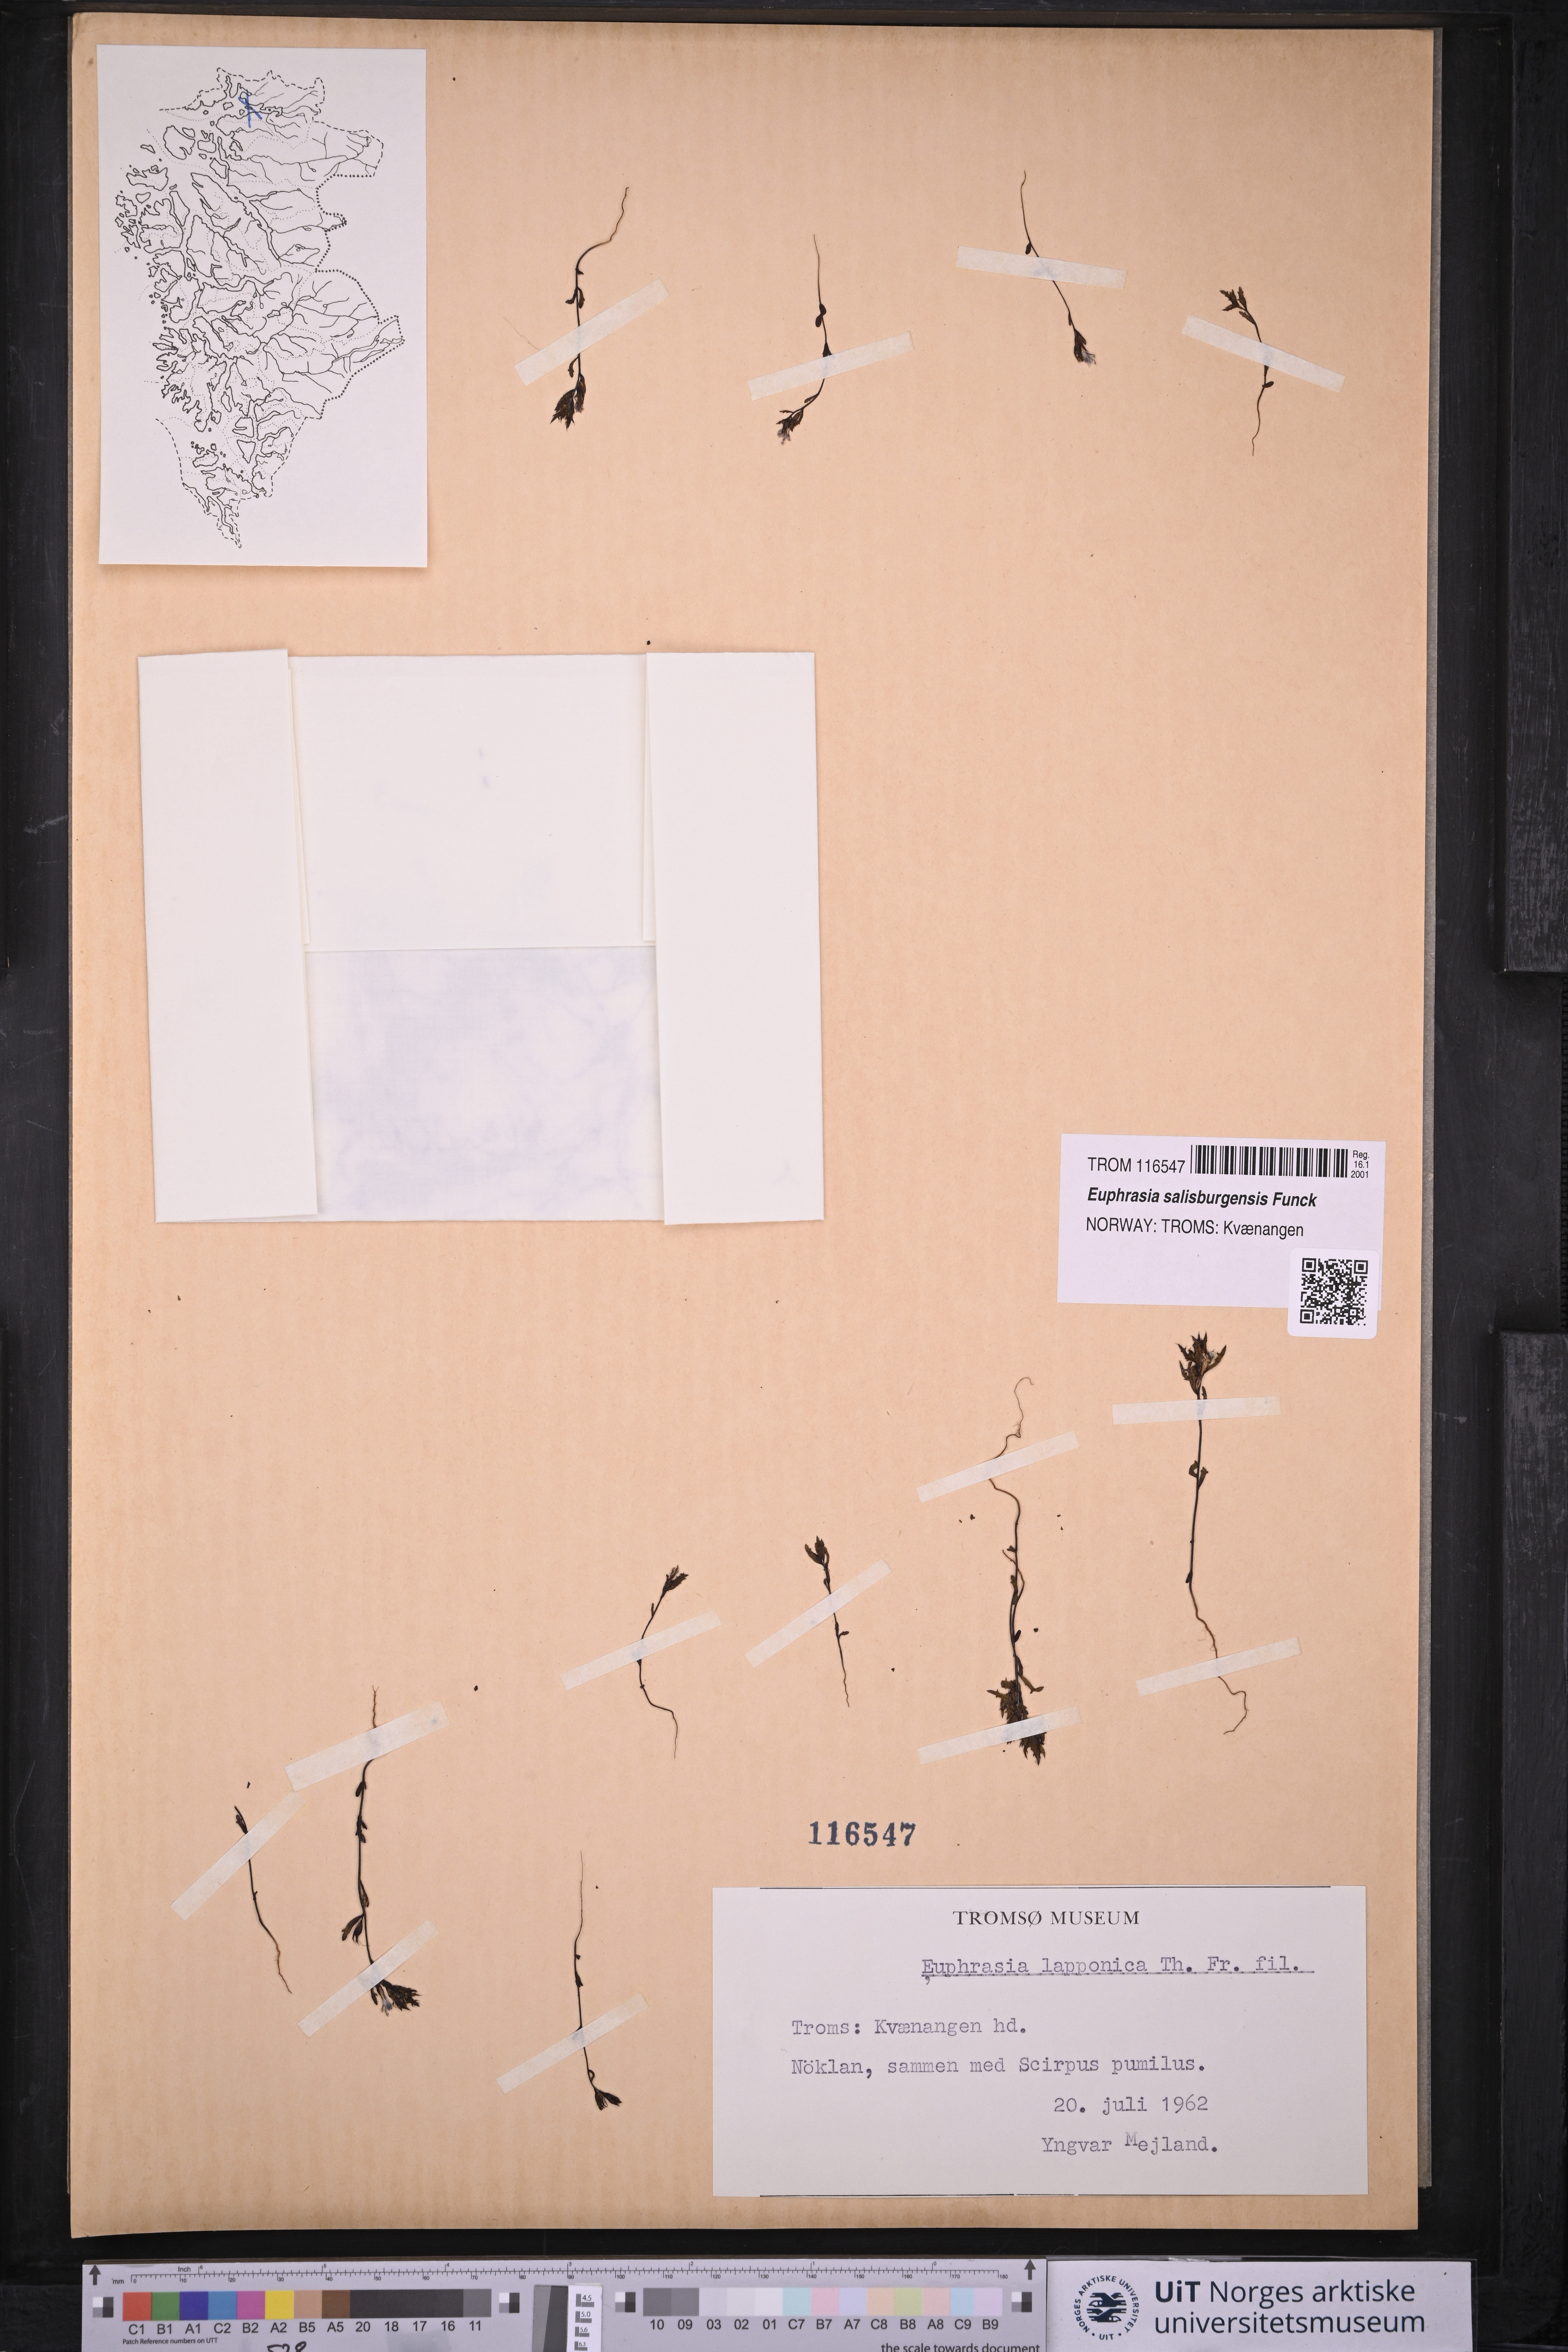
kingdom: Plantae
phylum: Tracheophyta
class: Magnoliopsida
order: Lamiales
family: Orobanchaceae
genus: Euphrasia
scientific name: Euphrasia salisburgensis
